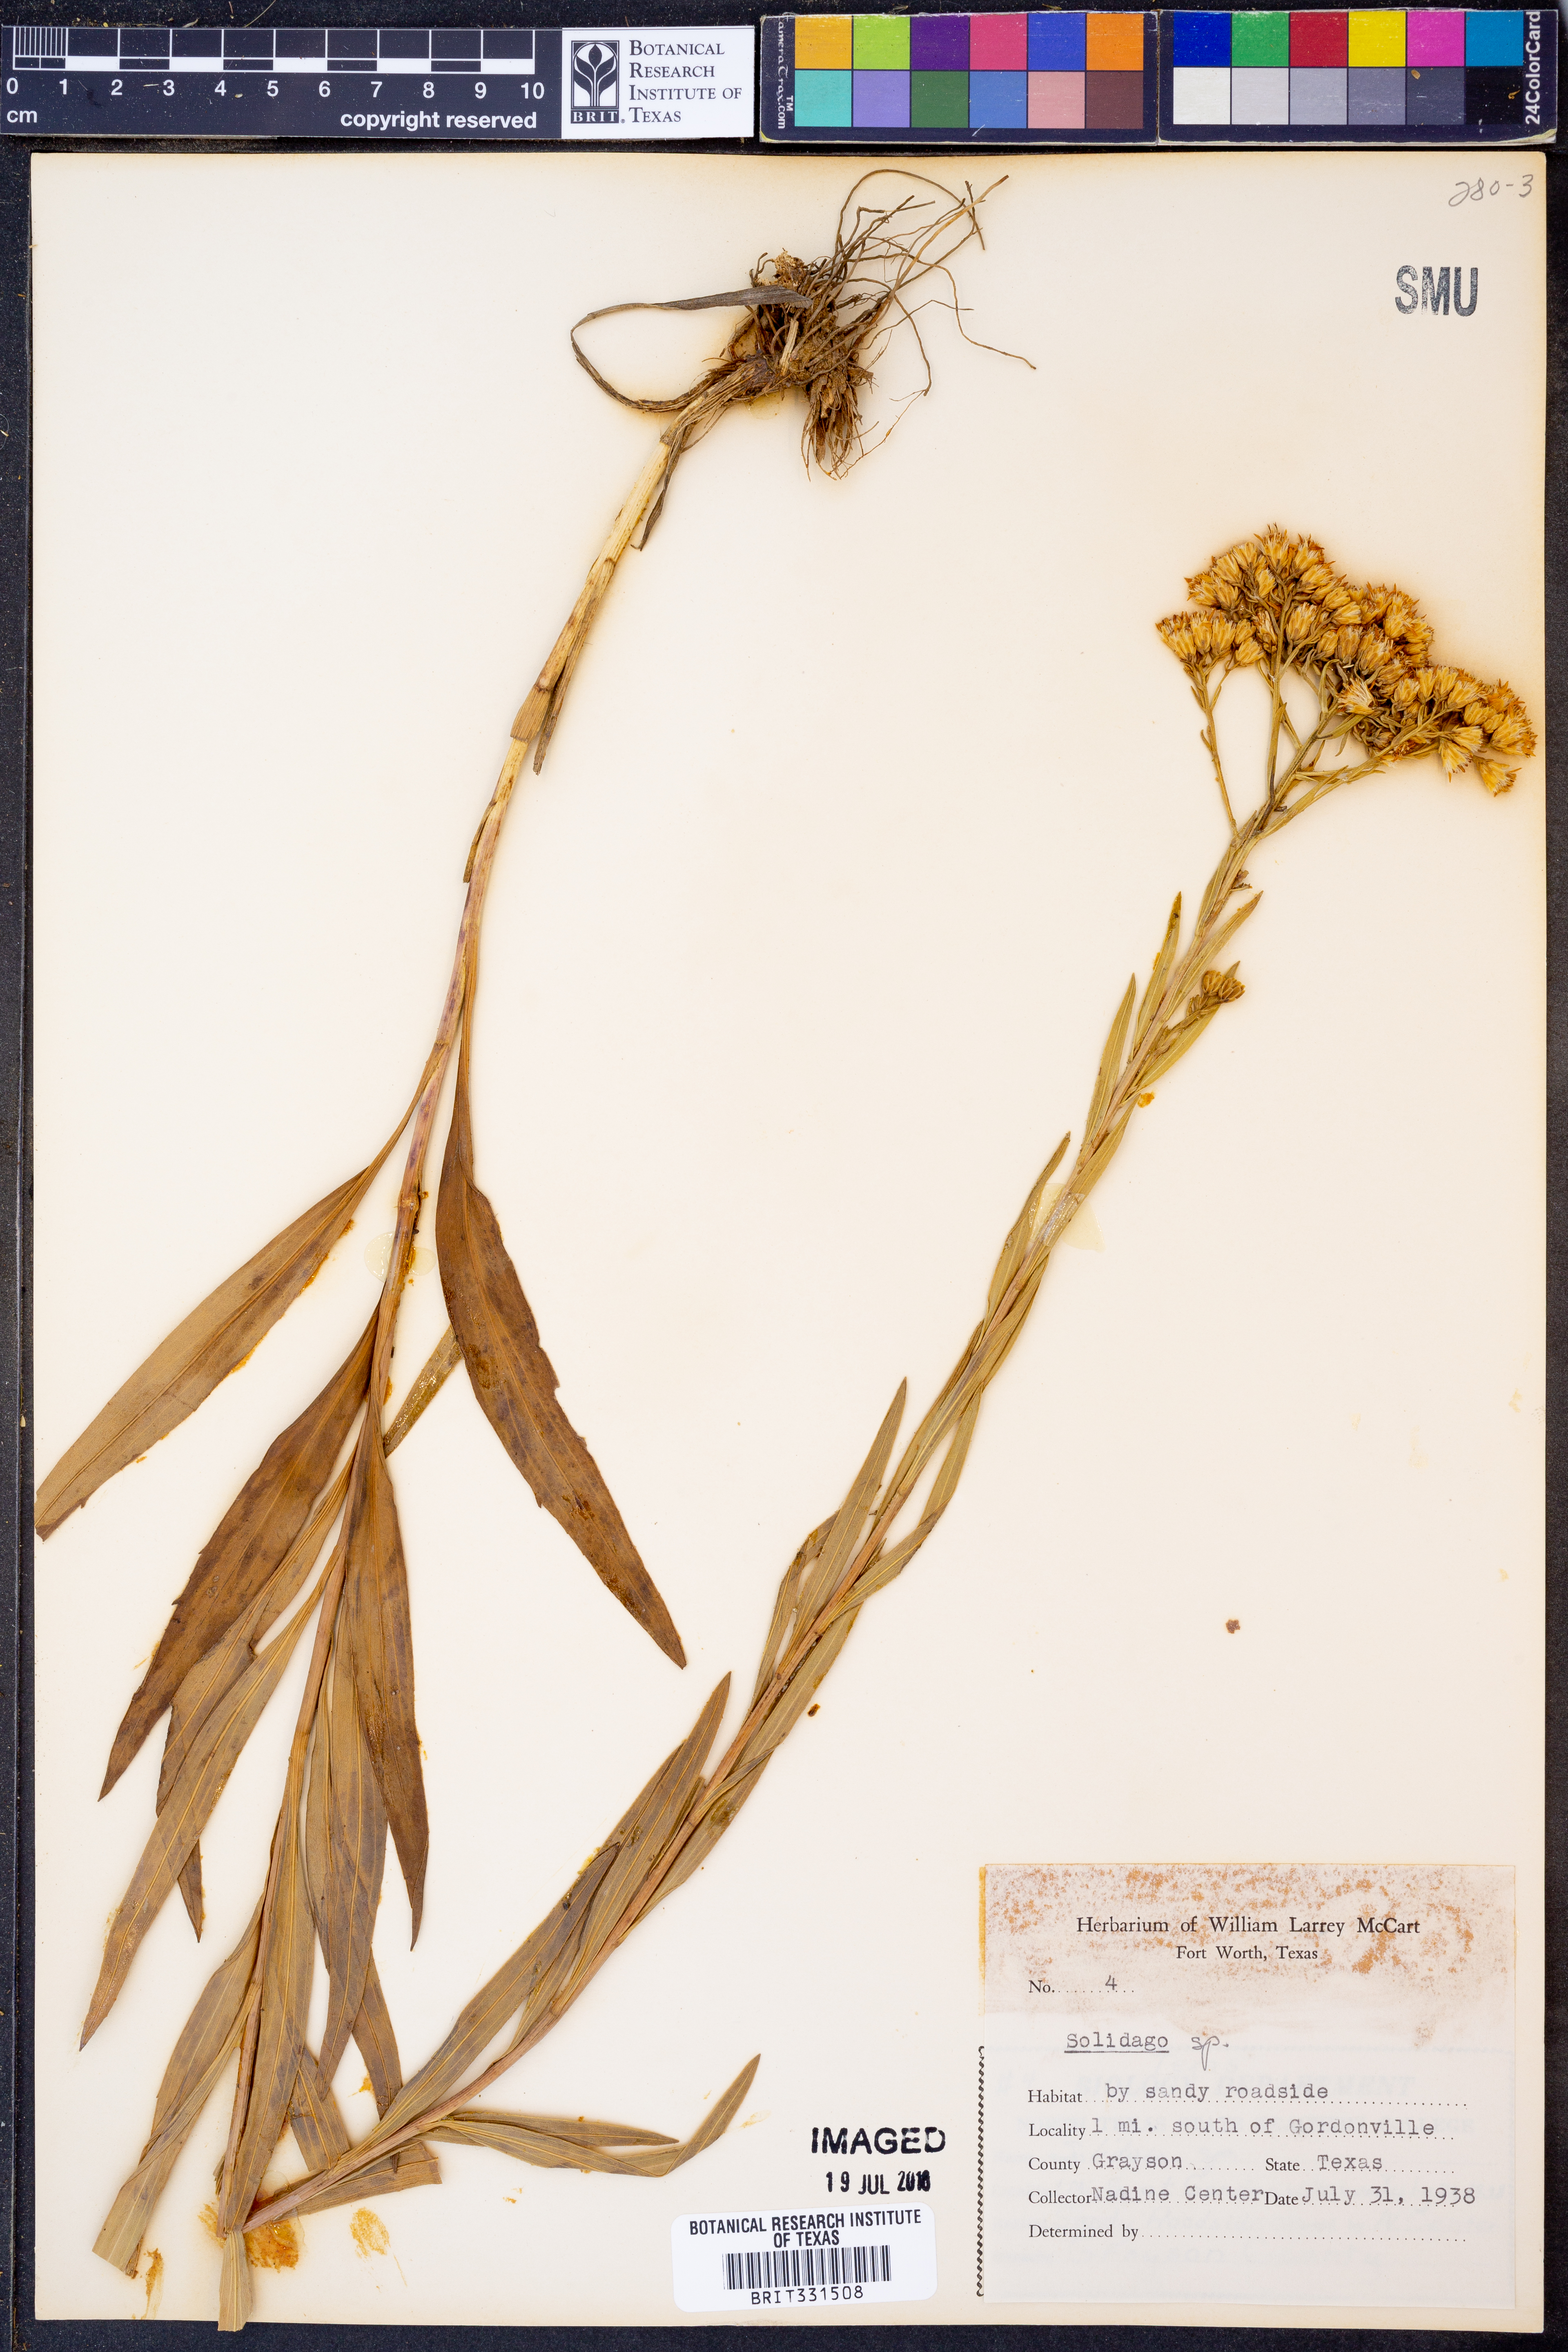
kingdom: Plantae
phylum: Tracheophyta
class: Magnoliopsida
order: Asterales
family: Asteraceae
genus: Solidago
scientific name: Solidago
